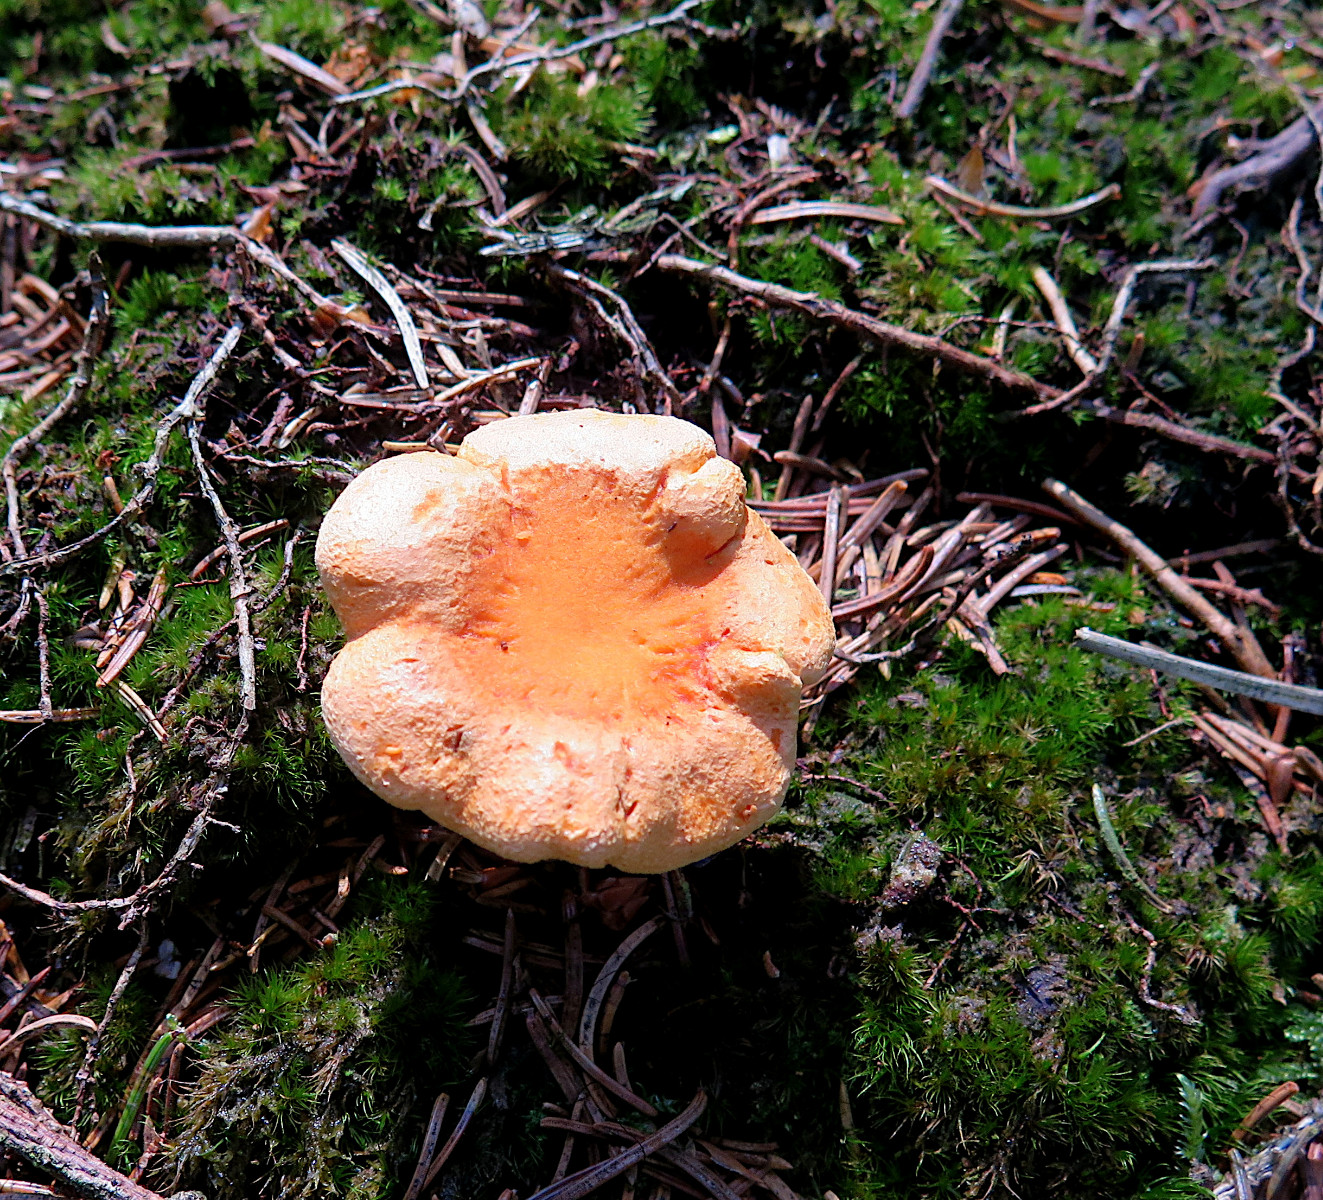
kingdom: Fungi
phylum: Basidiomycota
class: Agaricomycetes
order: Boletales
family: Hygrophoropsidaceae
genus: Hygrophoropsis
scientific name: Hygrophoropsis aurantiaca
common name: almindelig orangekantarel
